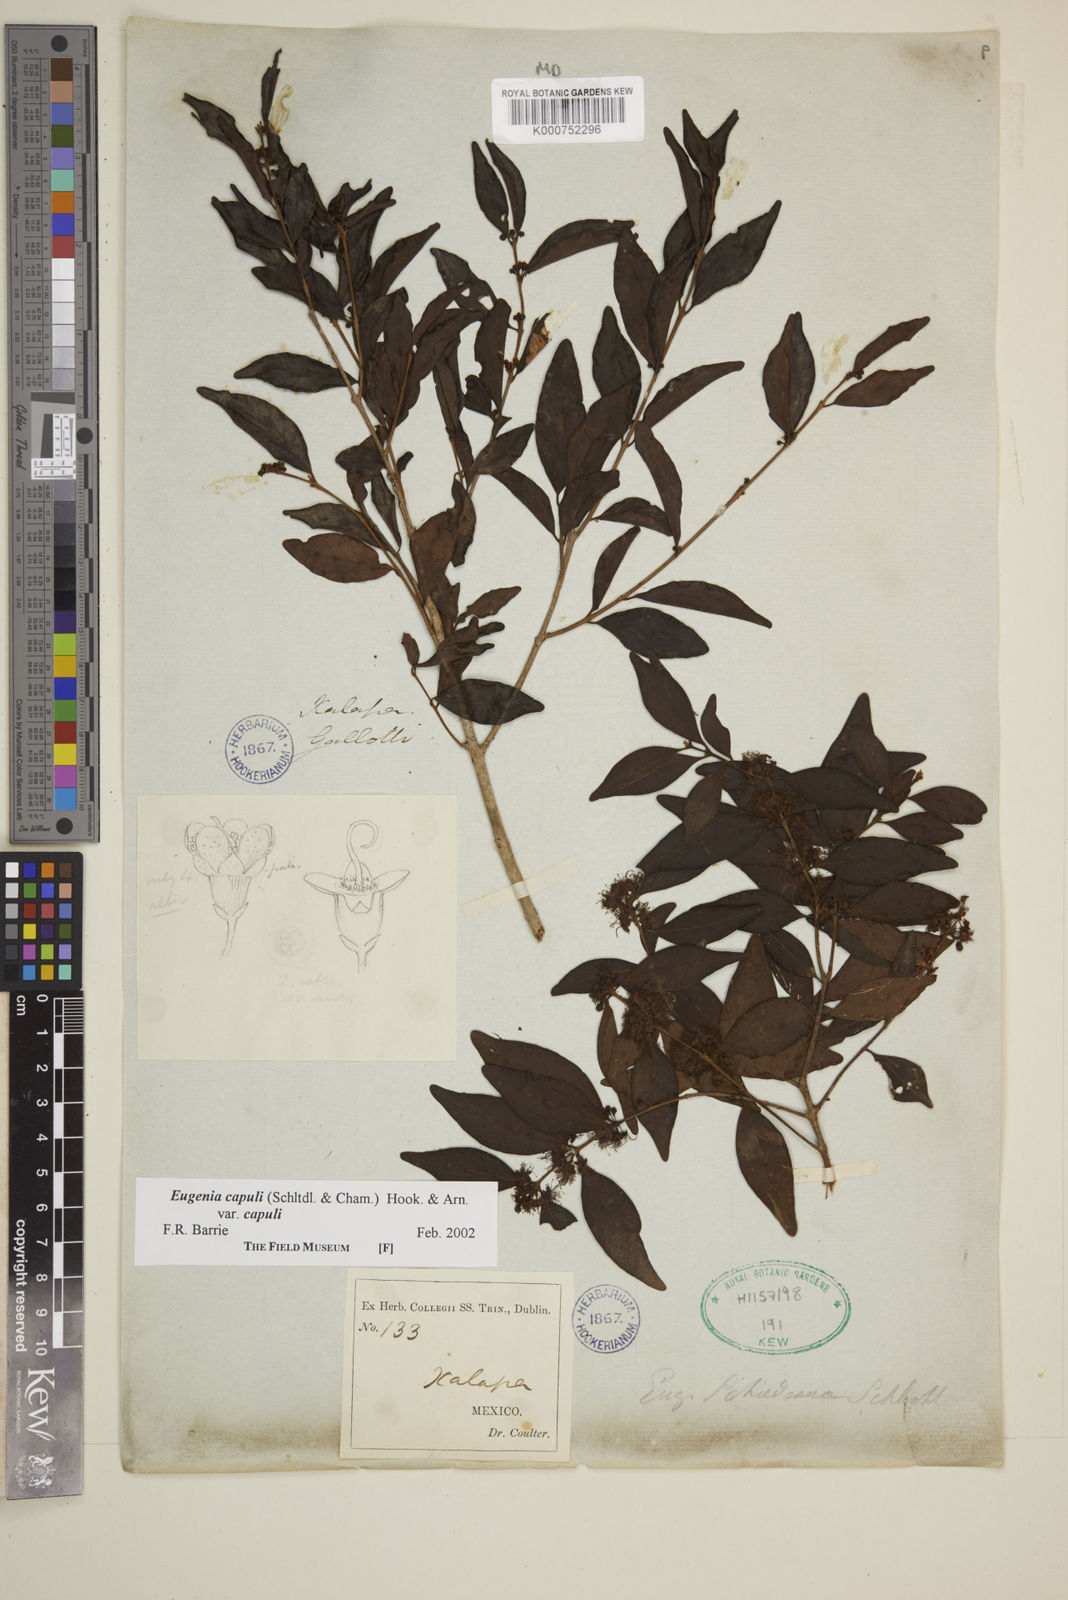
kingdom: Plantae
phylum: Tracheophyta
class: Magnoliopsida
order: Myrtales
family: Myrtaceae
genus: Eugenia
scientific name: Eugenia capuli
